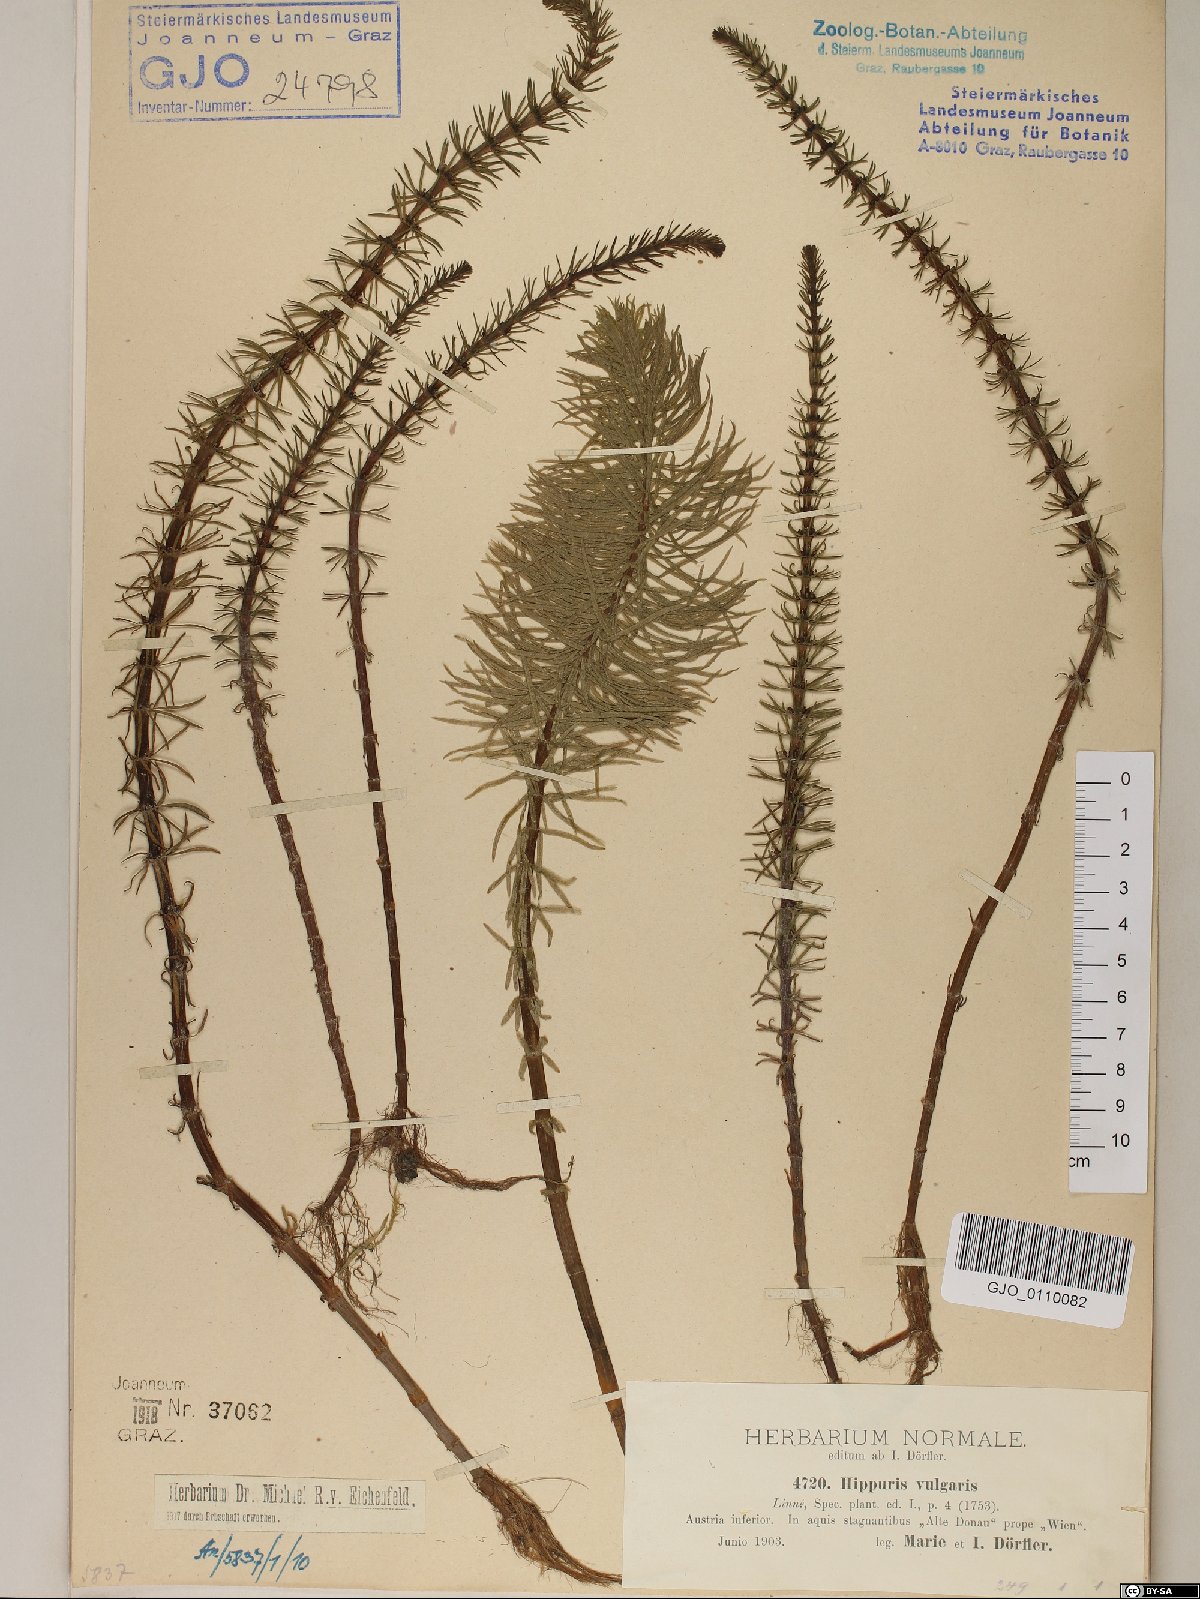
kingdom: Plantae
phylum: Tracheophyta
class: Magnoliopsida
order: Lamiales
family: Plantaginaceae
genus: Hippuris
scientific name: Hippuris vulgaris
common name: Mare's-tail
